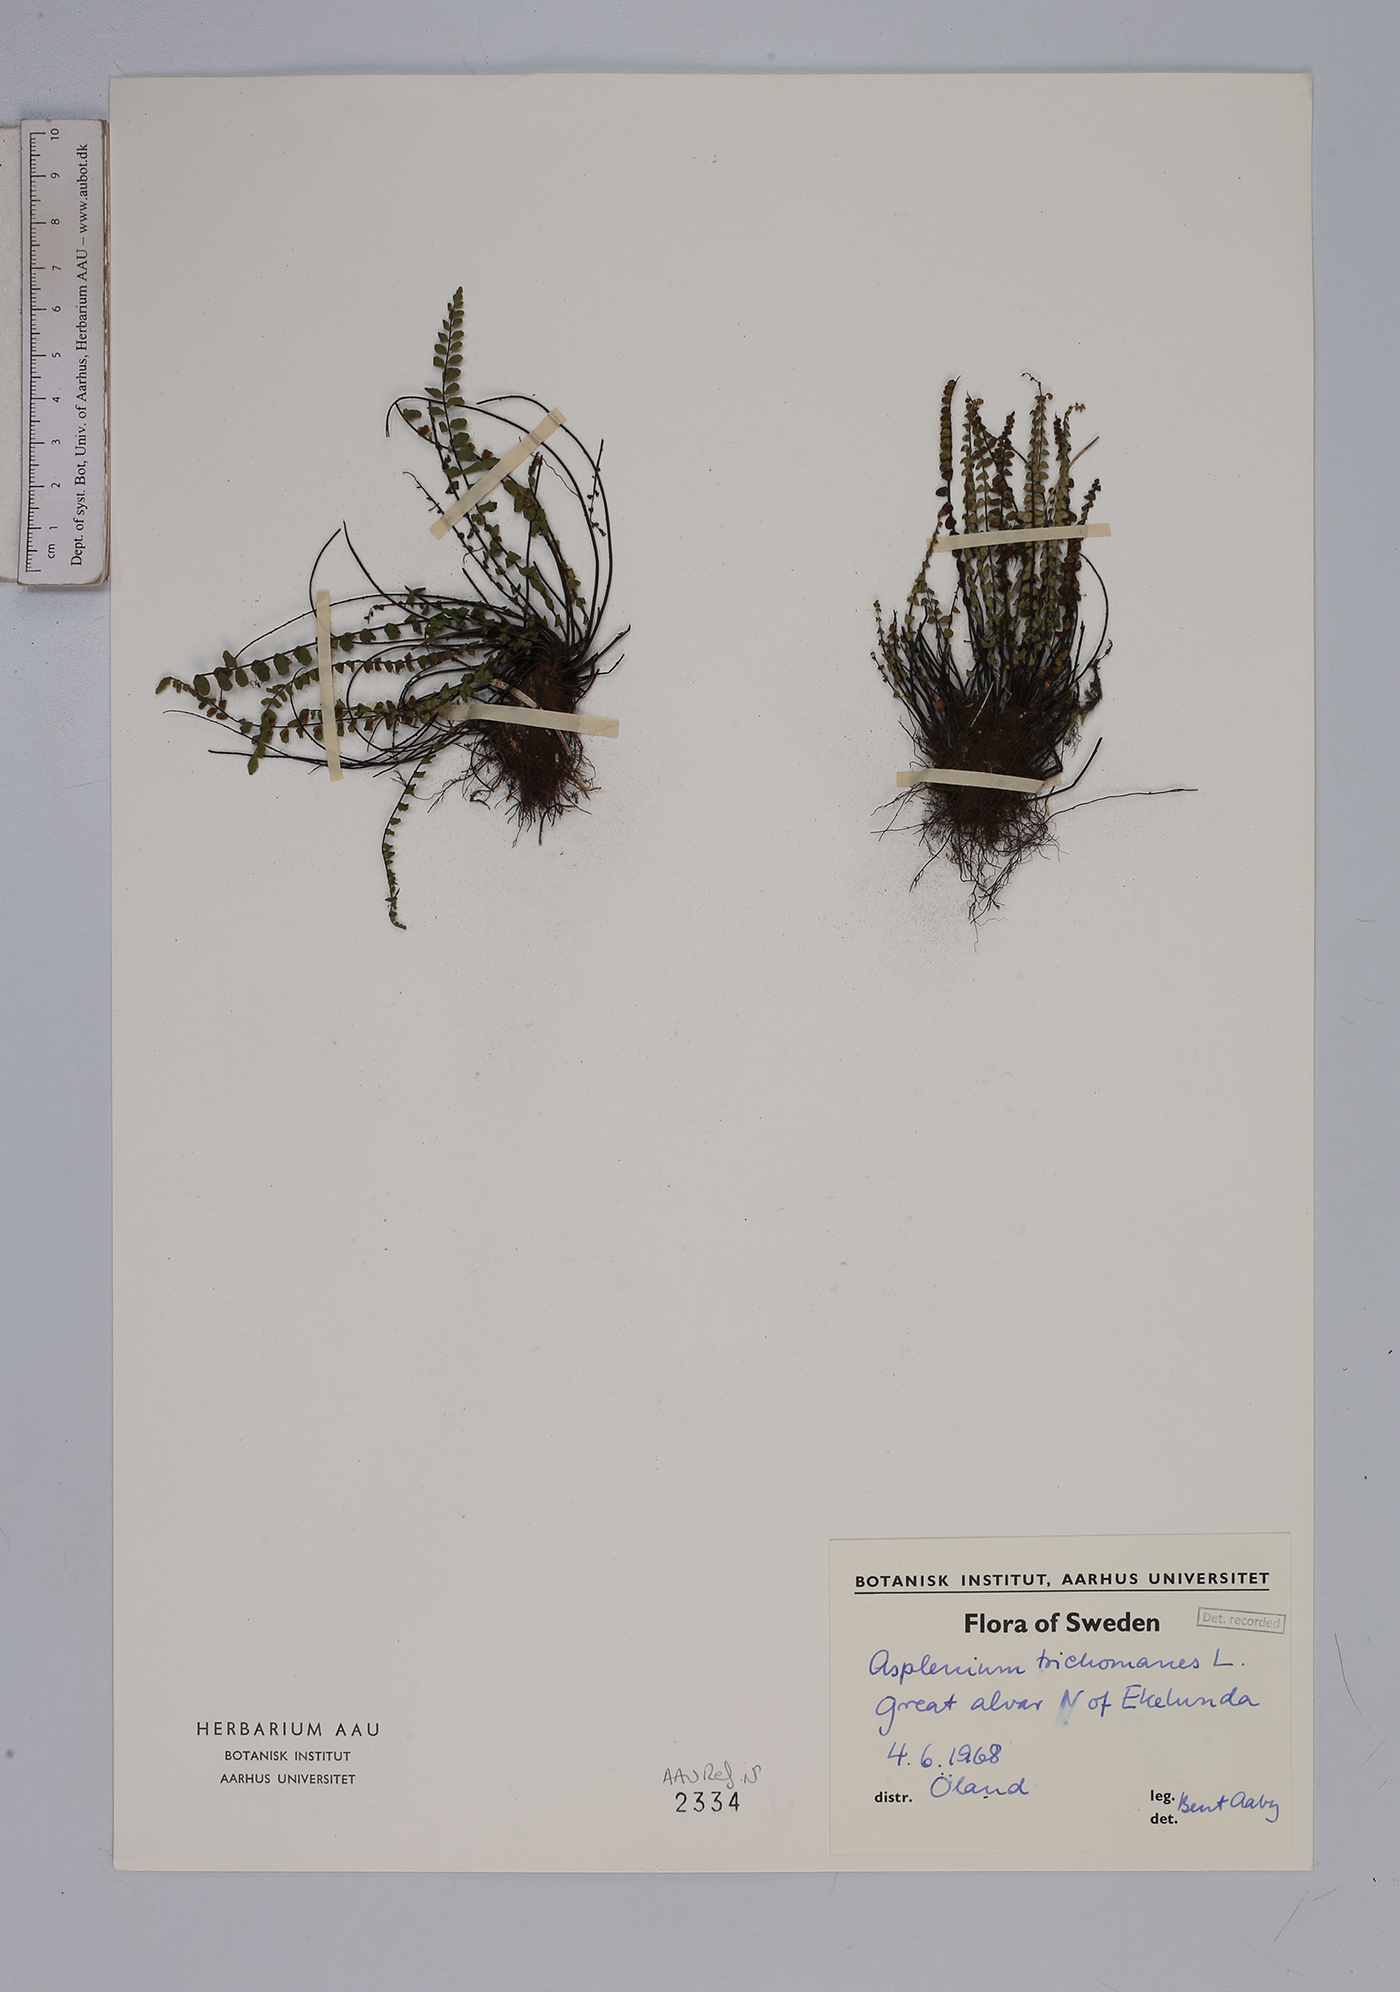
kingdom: Plantae
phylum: Tracheophyta
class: Polypodiopsida
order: Polypodiales
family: Aspleniaceae
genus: Asplenium
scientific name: Asplenium trichomanes
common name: Maidenhair spleenwort
